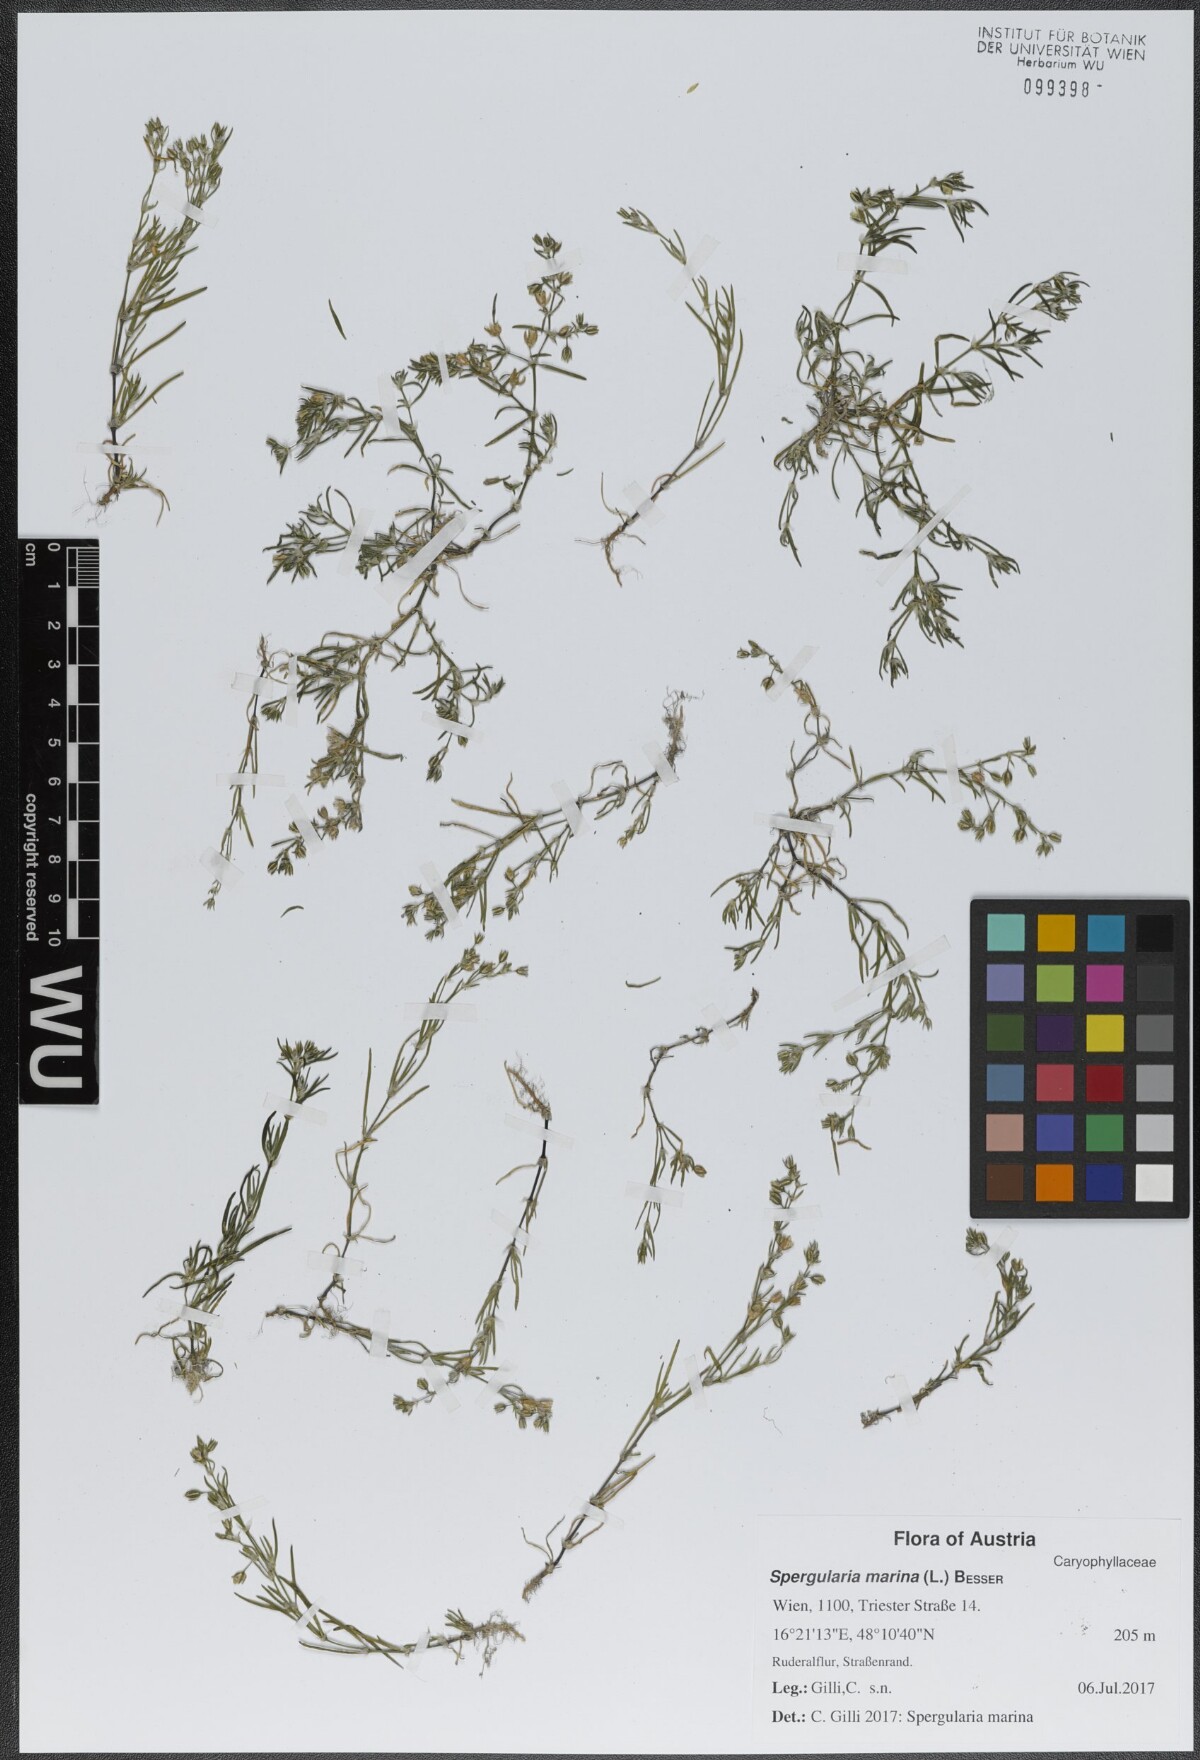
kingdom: Plantae
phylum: Tracheophyta
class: Magnoliopsida
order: Caryophyllales
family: Caryophyllaceae
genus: Spergularia
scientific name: Spergularia marina
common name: Lesser sea-spurrey
